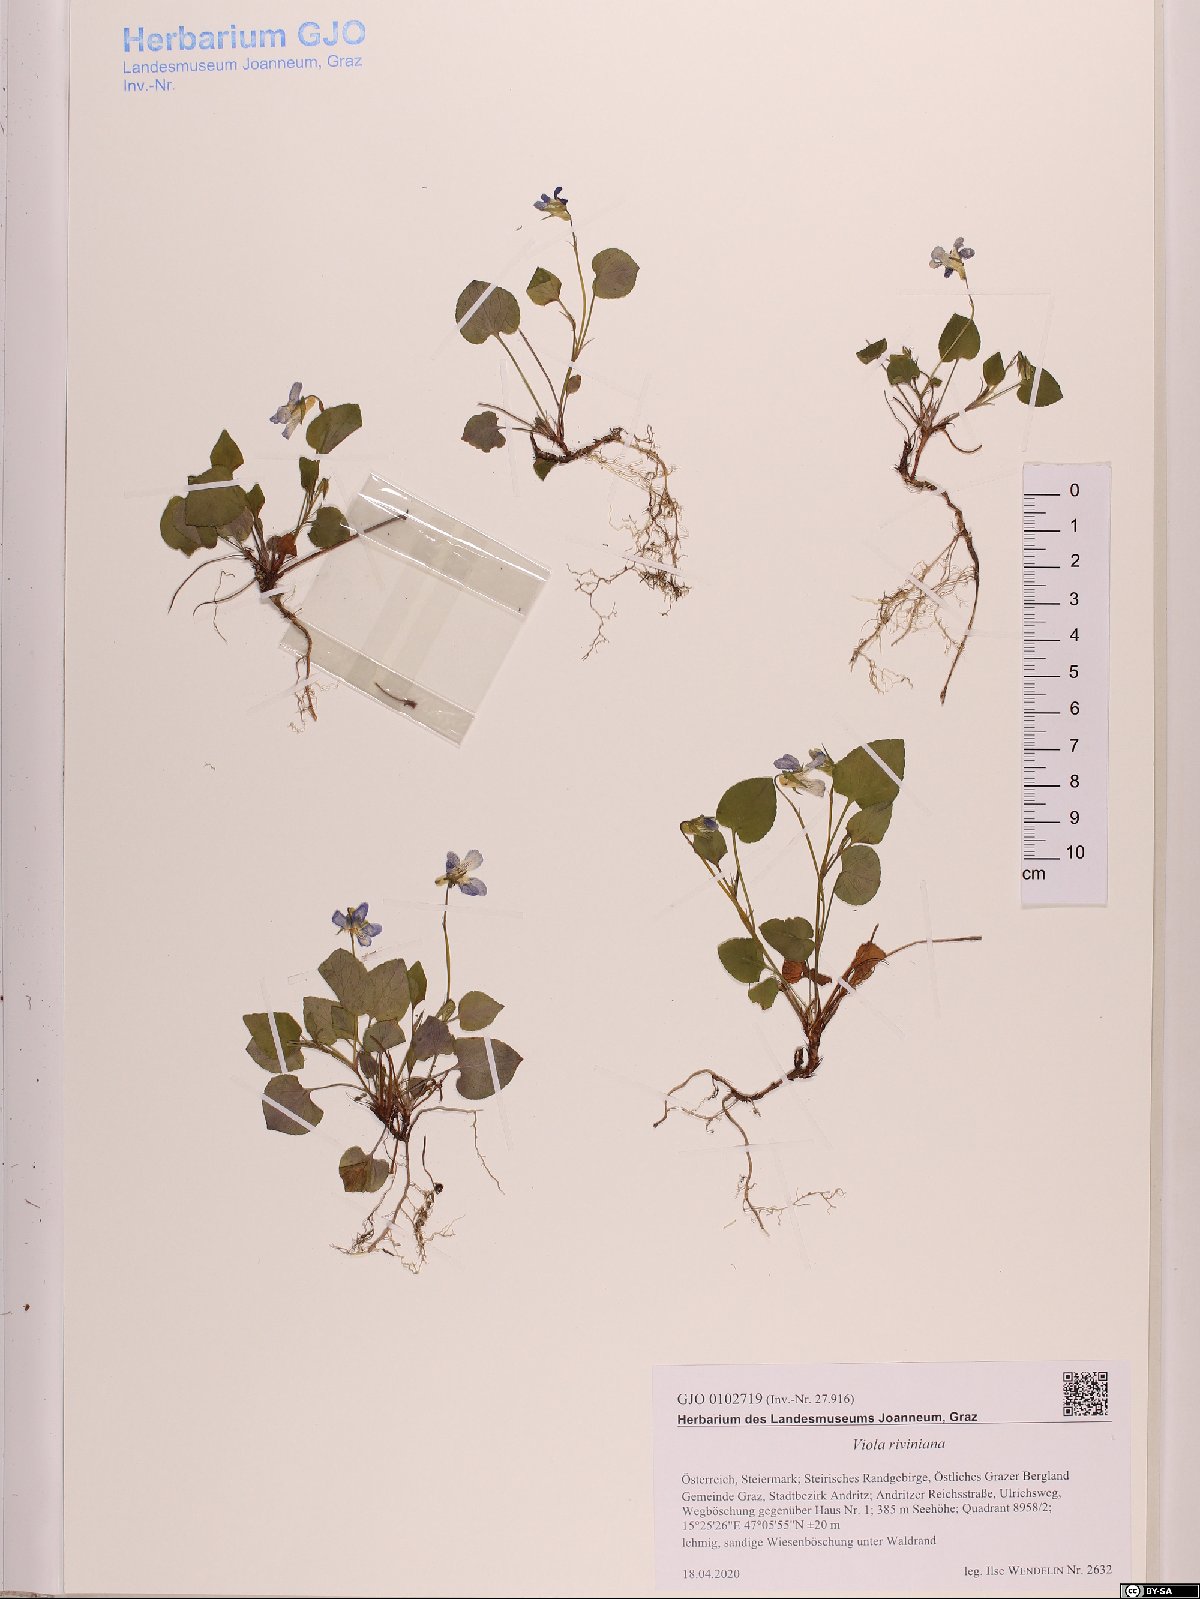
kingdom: Plantae
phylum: Tracheophyta
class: Magnoliopsida
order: Malpighiales
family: Violaceae
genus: Viola
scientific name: Viola riviniana
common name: Common dog-violet
